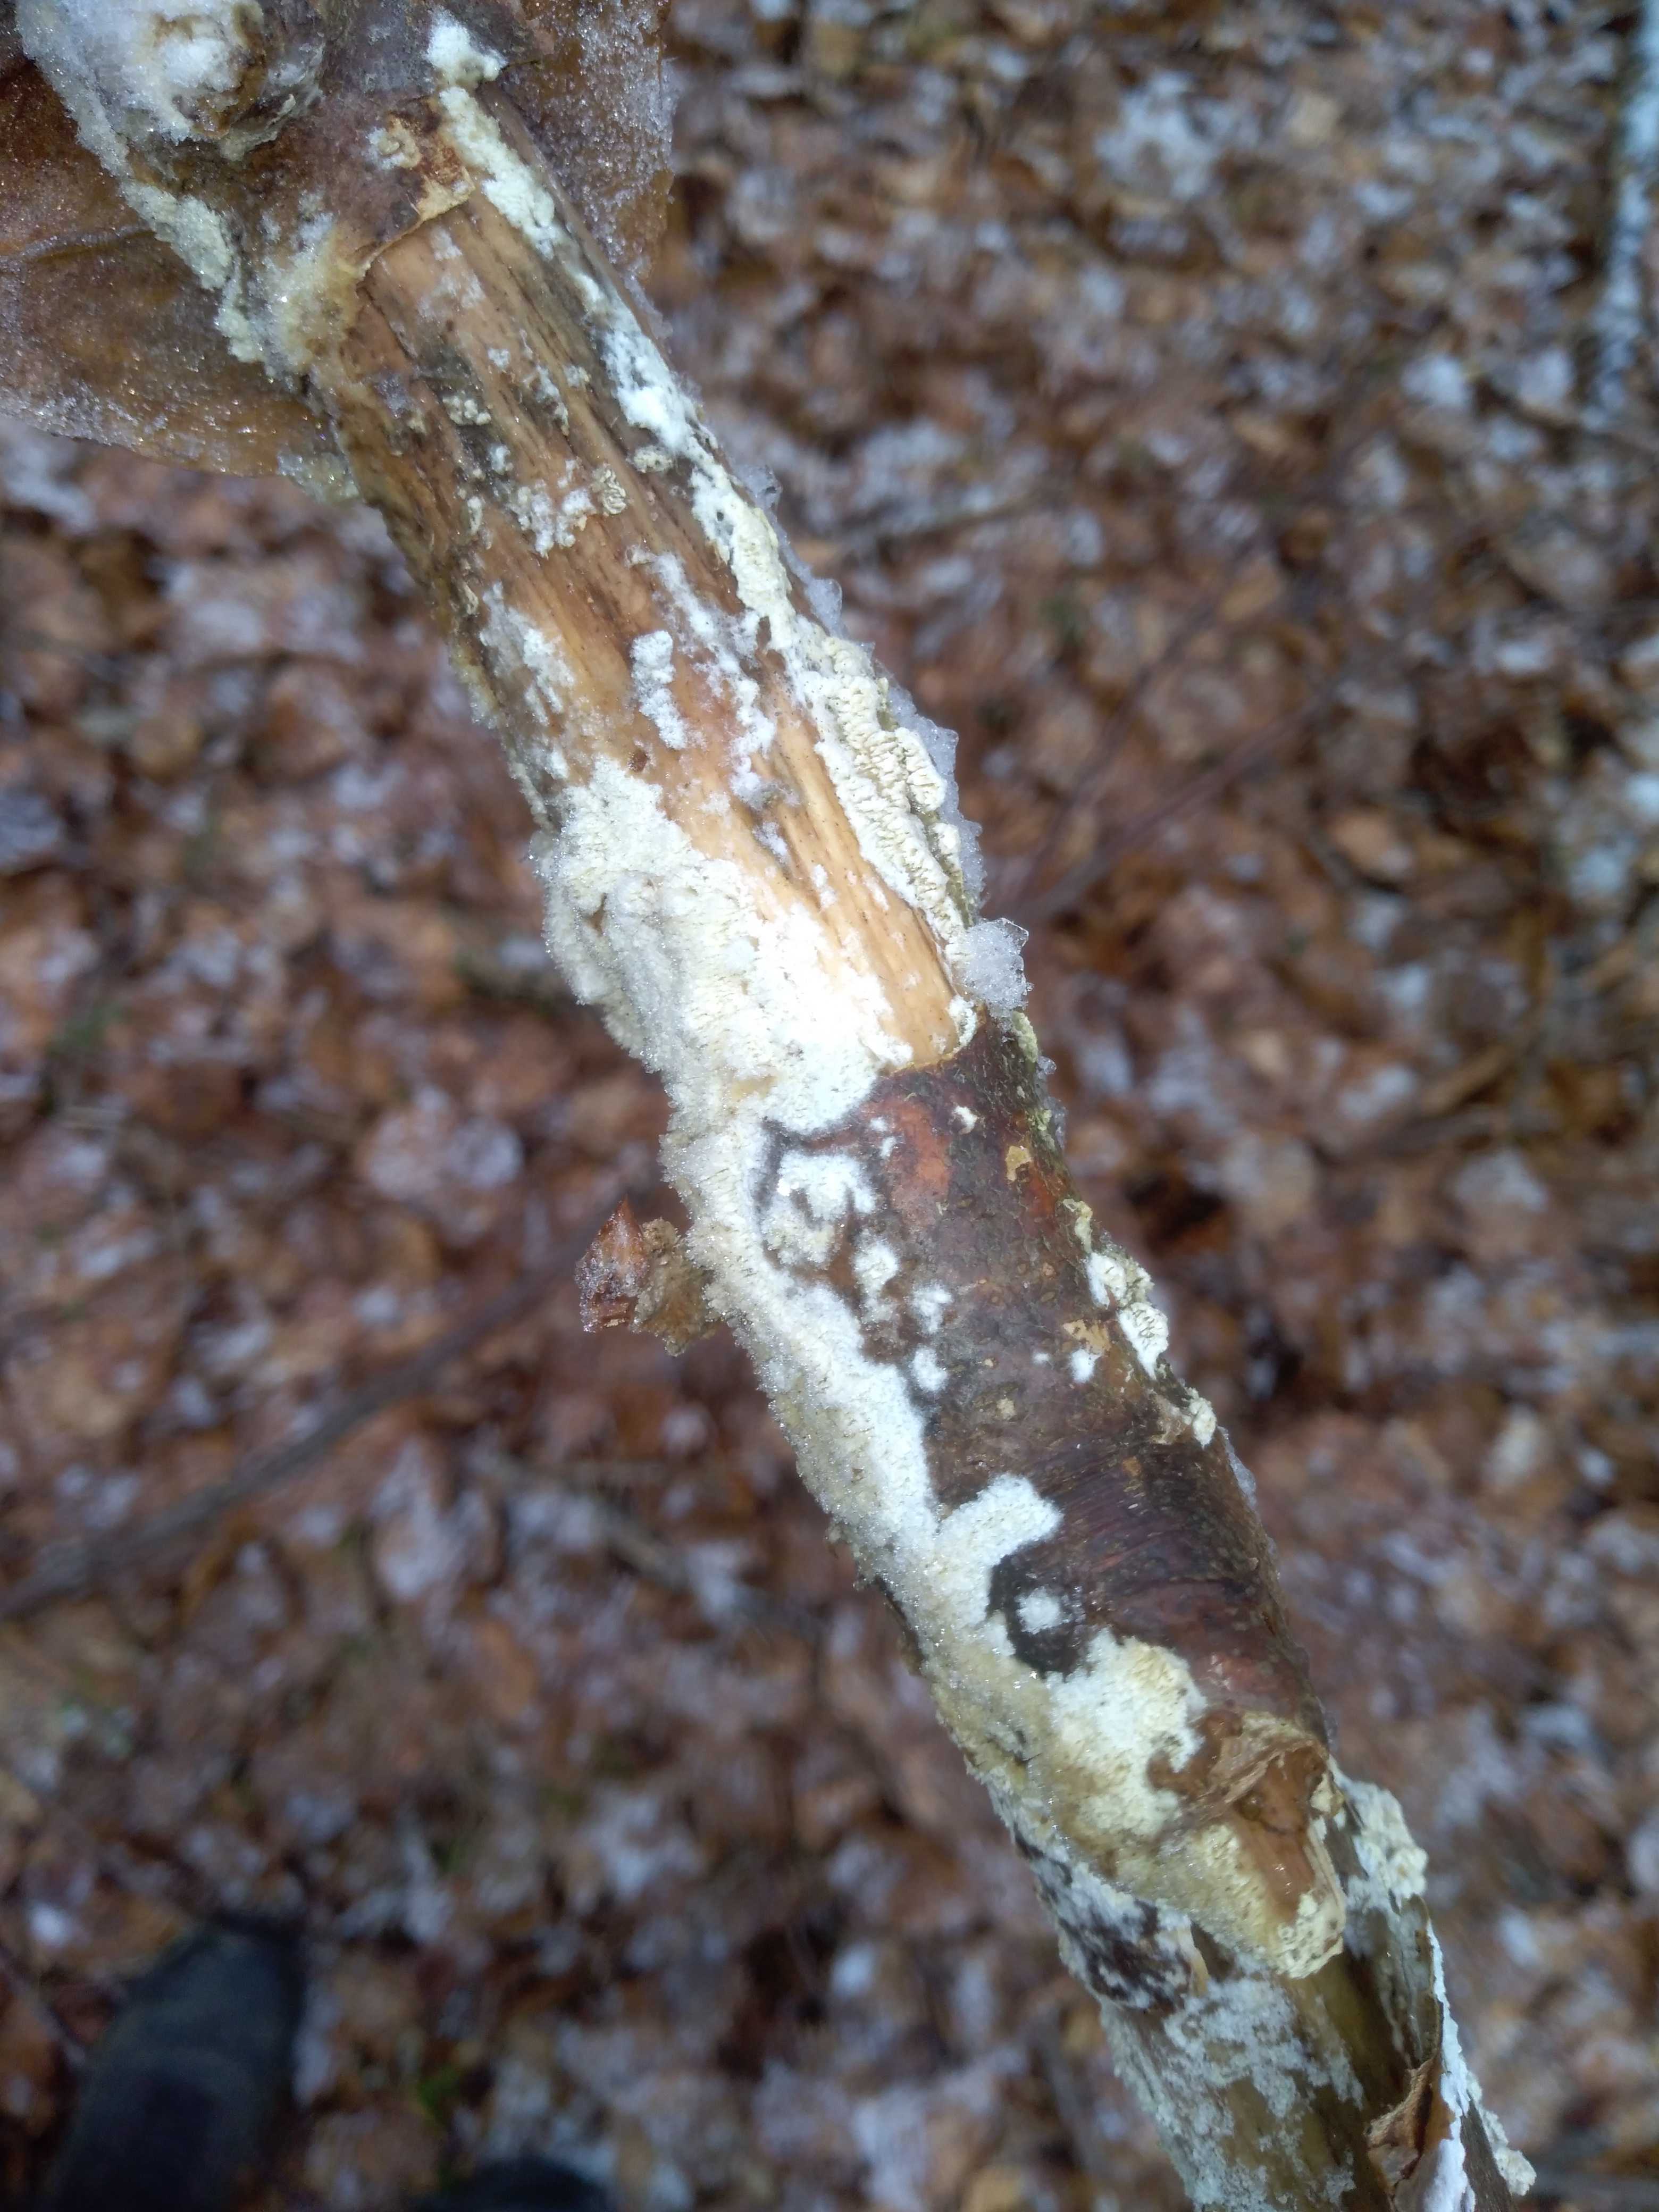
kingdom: Fungi
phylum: Basidiomycota
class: Agaricomycetes
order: Hymenochaetales
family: Schizoporaceae
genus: Schizopora
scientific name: Schizopora paradoxa
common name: hvid tandsvamp
